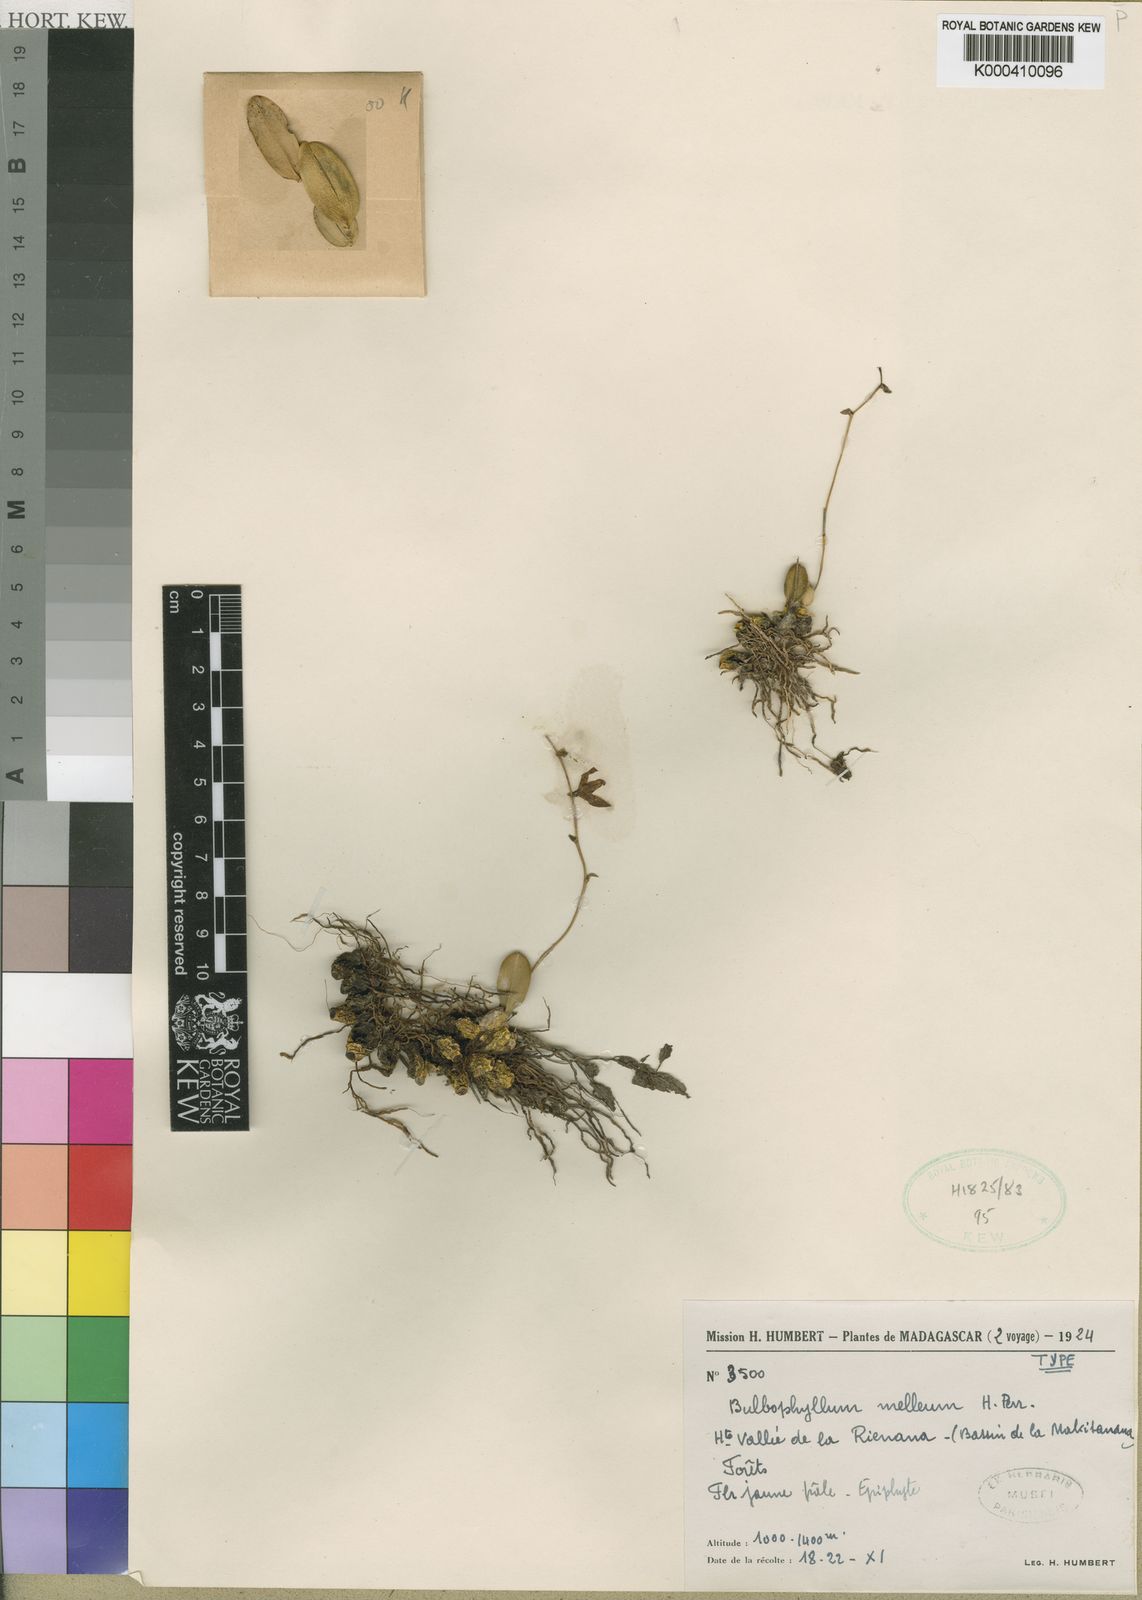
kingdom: Plantae
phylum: Tracheophyta
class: Liliopsida
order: Asparagales
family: Orchidaceae
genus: Bulbophyllum
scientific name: Bulbophyllum melleum
